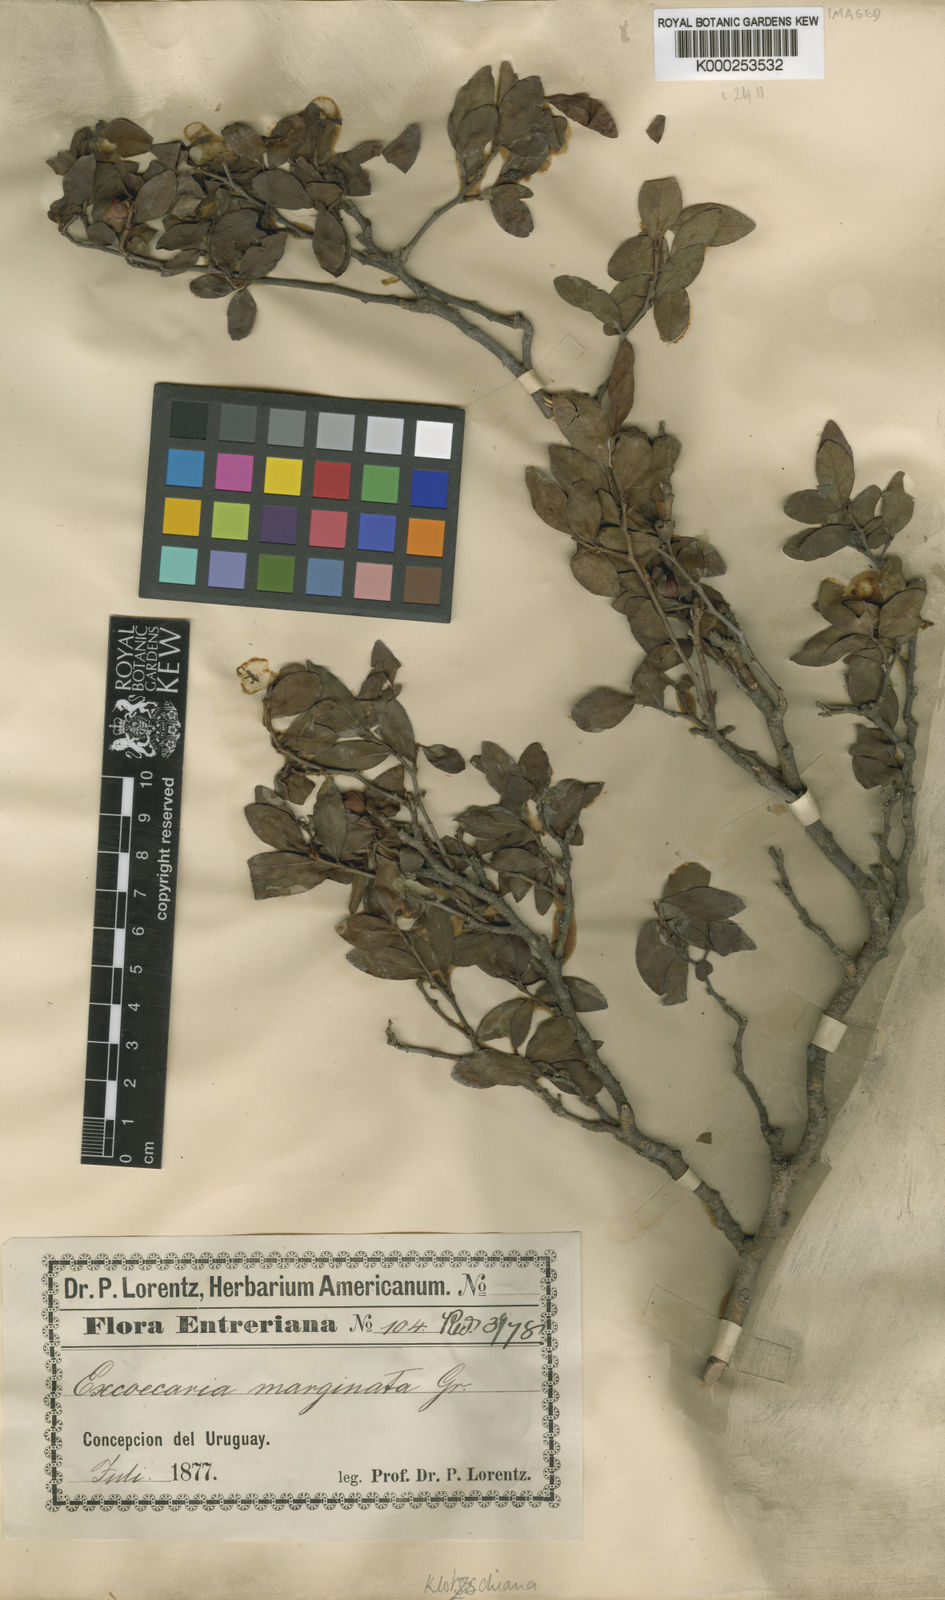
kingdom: Plantae
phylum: Tracheophyta
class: Magnoliopsida
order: Malpighiales
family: Euphorbiaceae
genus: Sebastiania
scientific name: Sebastiania
